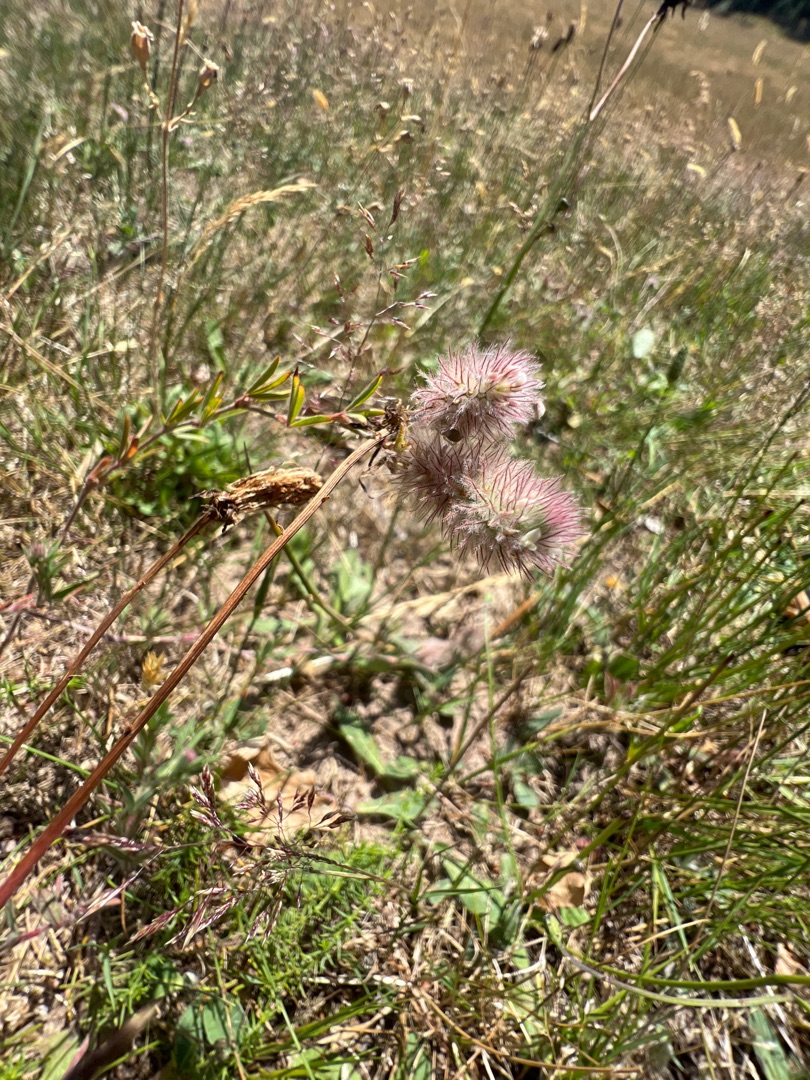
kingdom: Plantae
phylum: Tracheophyta
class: Magnoliopsida
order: Fabales
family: Fabaceae
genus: Trifolium
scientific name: Trifolium arvense
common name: Hare-kløver
